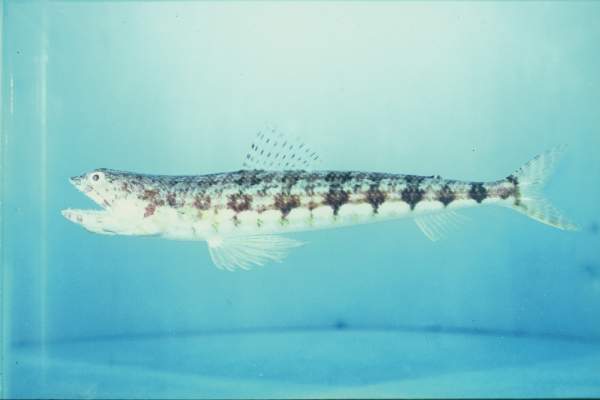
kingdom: Animalia
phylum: Chordata
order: Aulopiformes
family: Synodontidae
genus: Synodus
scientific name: Synodus dermatogenys
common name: Banded lizardfish
